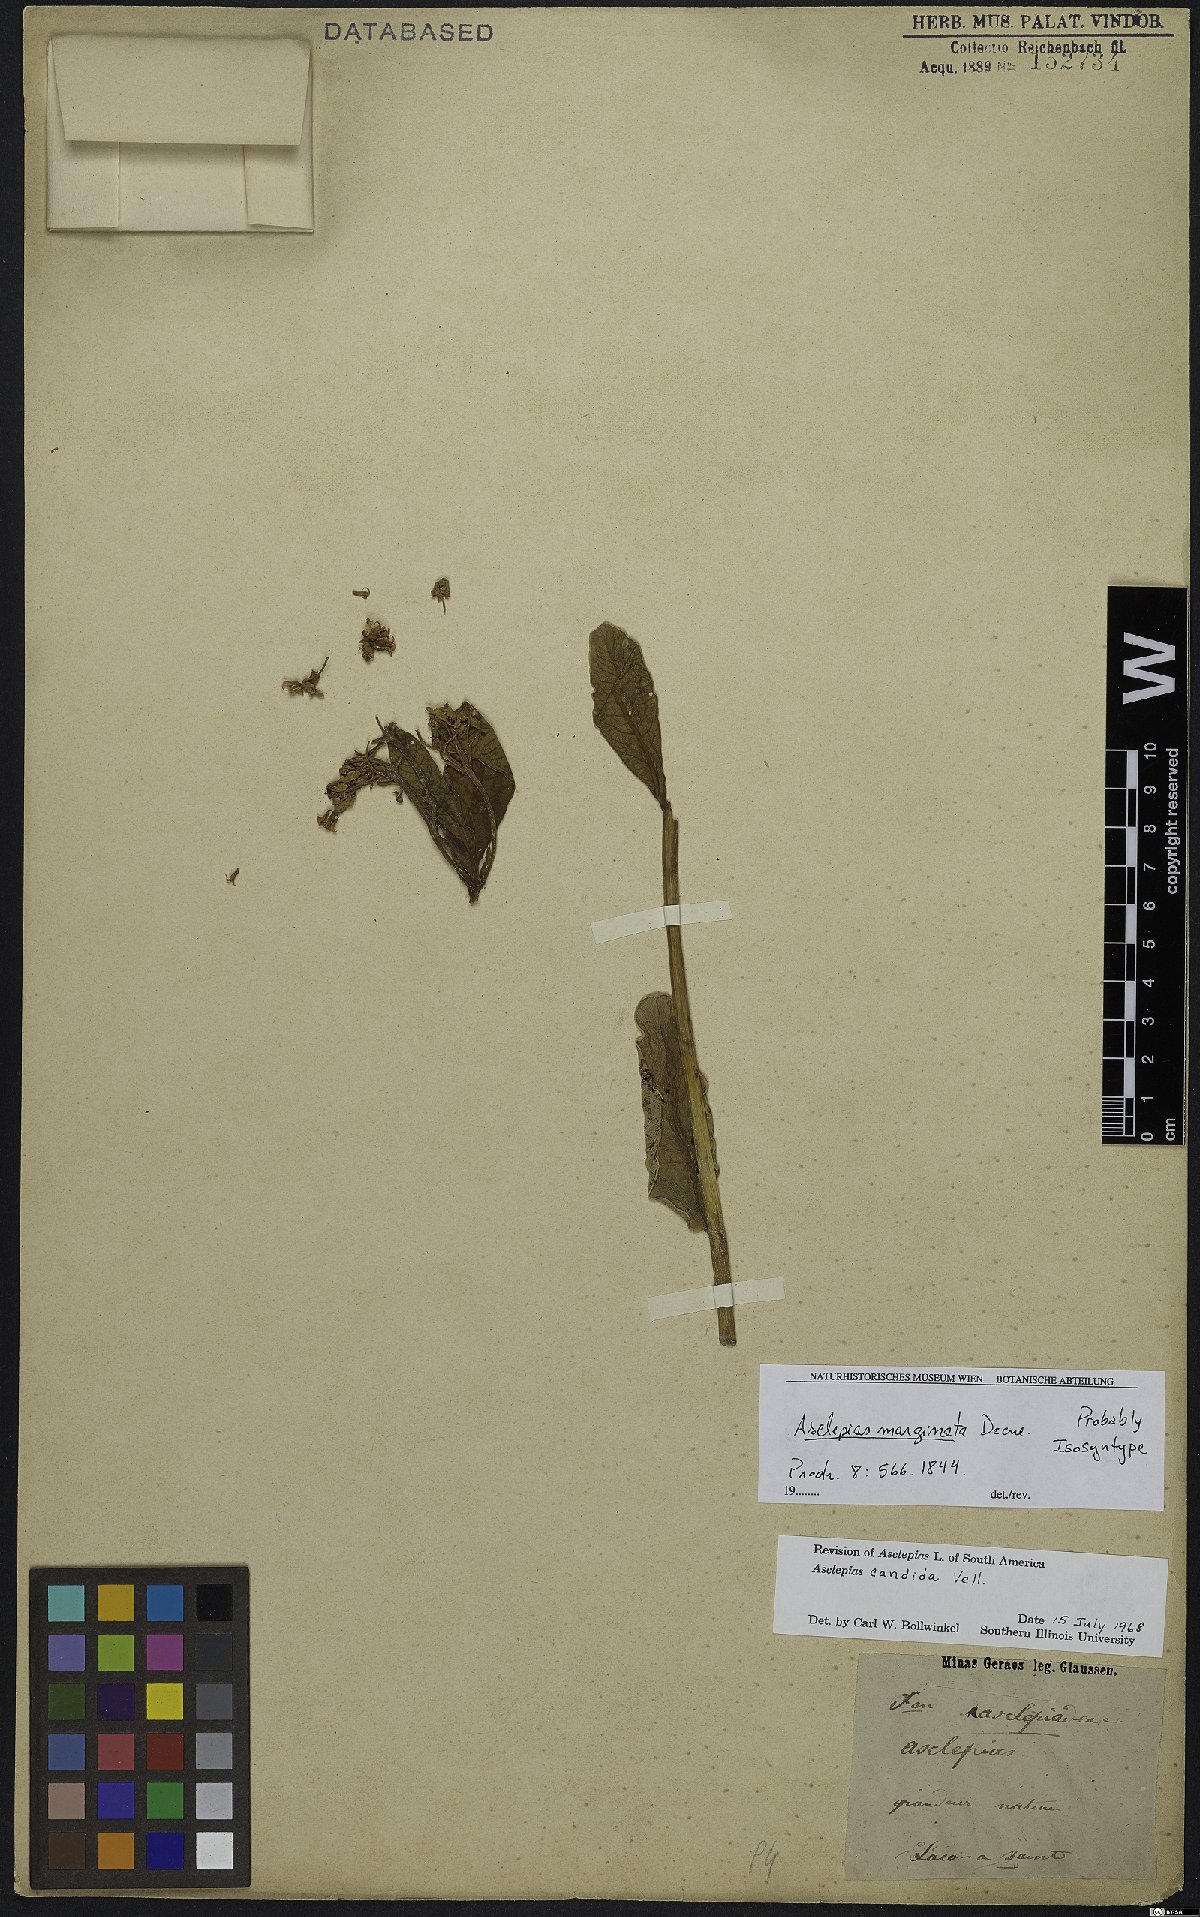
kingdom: Plantae
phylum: Tracheophyta
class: Magnoliopsida
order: Gentianales
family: Apocynaceae
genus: Asclepias
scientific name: Asclepias candida
